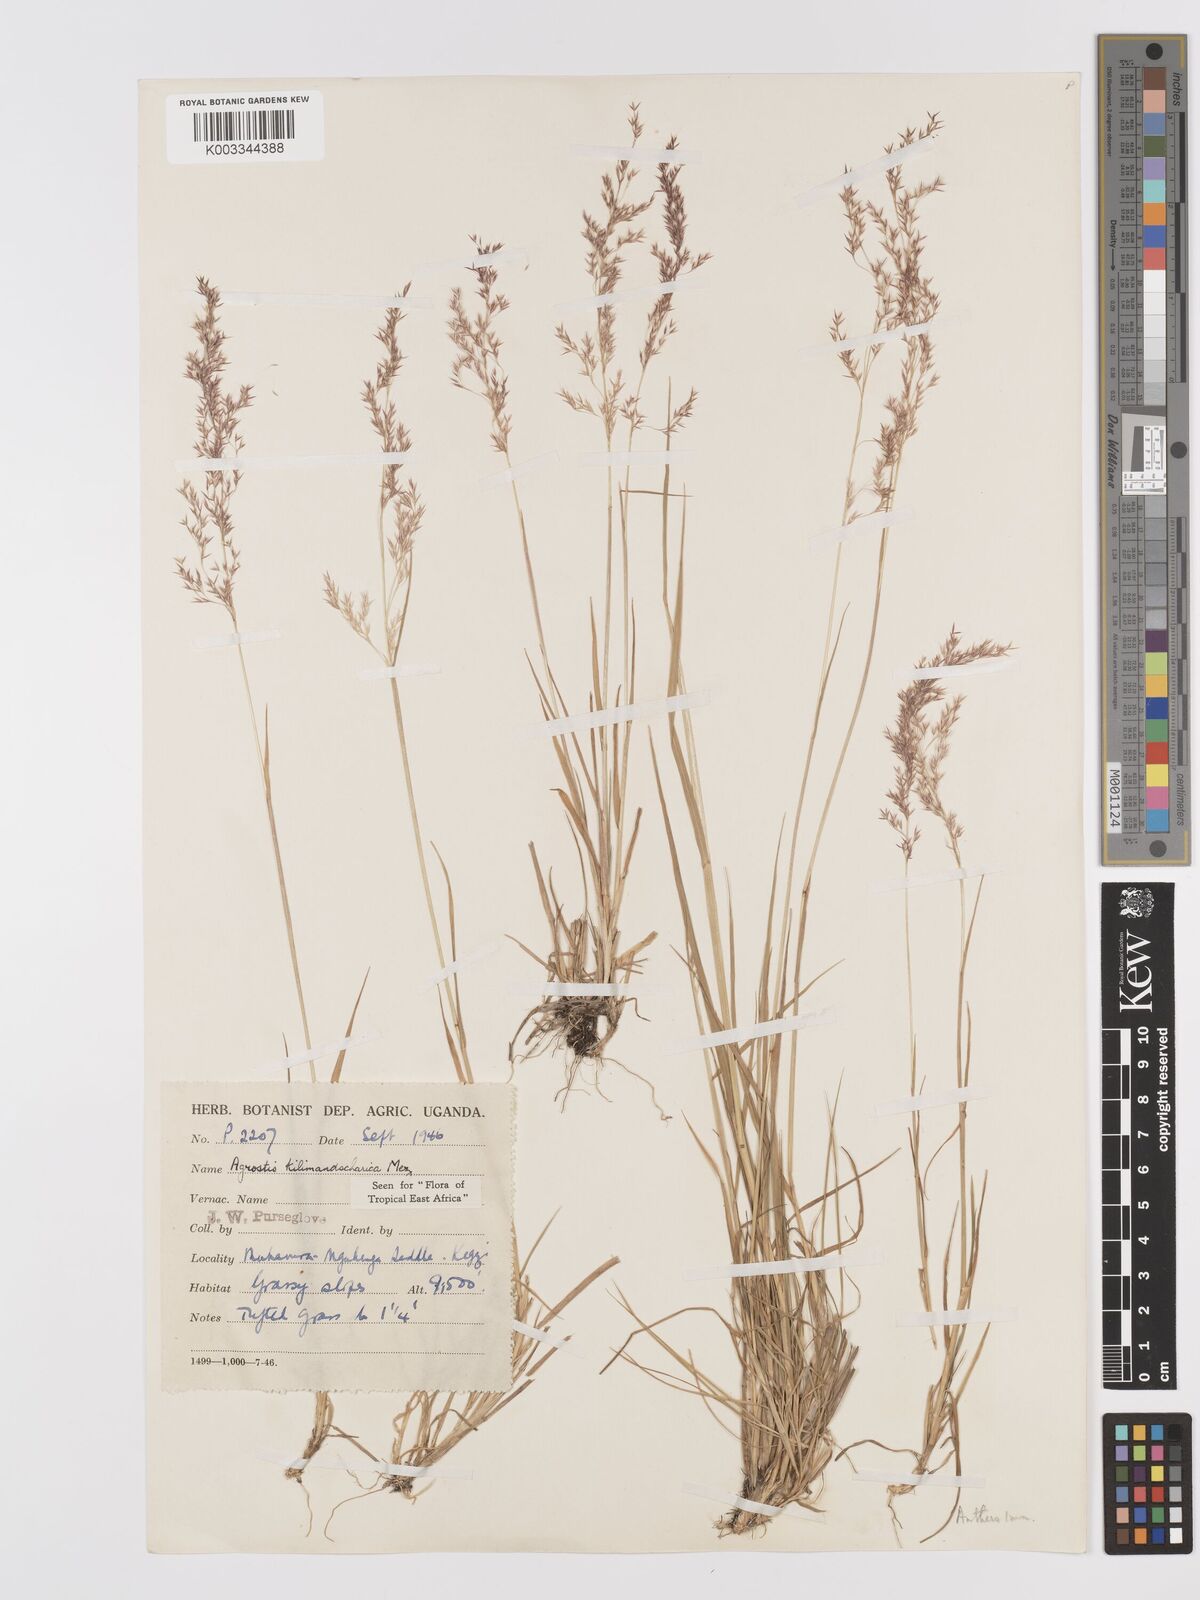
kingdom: Plantae
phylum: Tracheophyta
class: Liliopsida
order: Poales
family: Poaceae
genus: Agrostis
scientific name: Agrostis kilimandscharica
